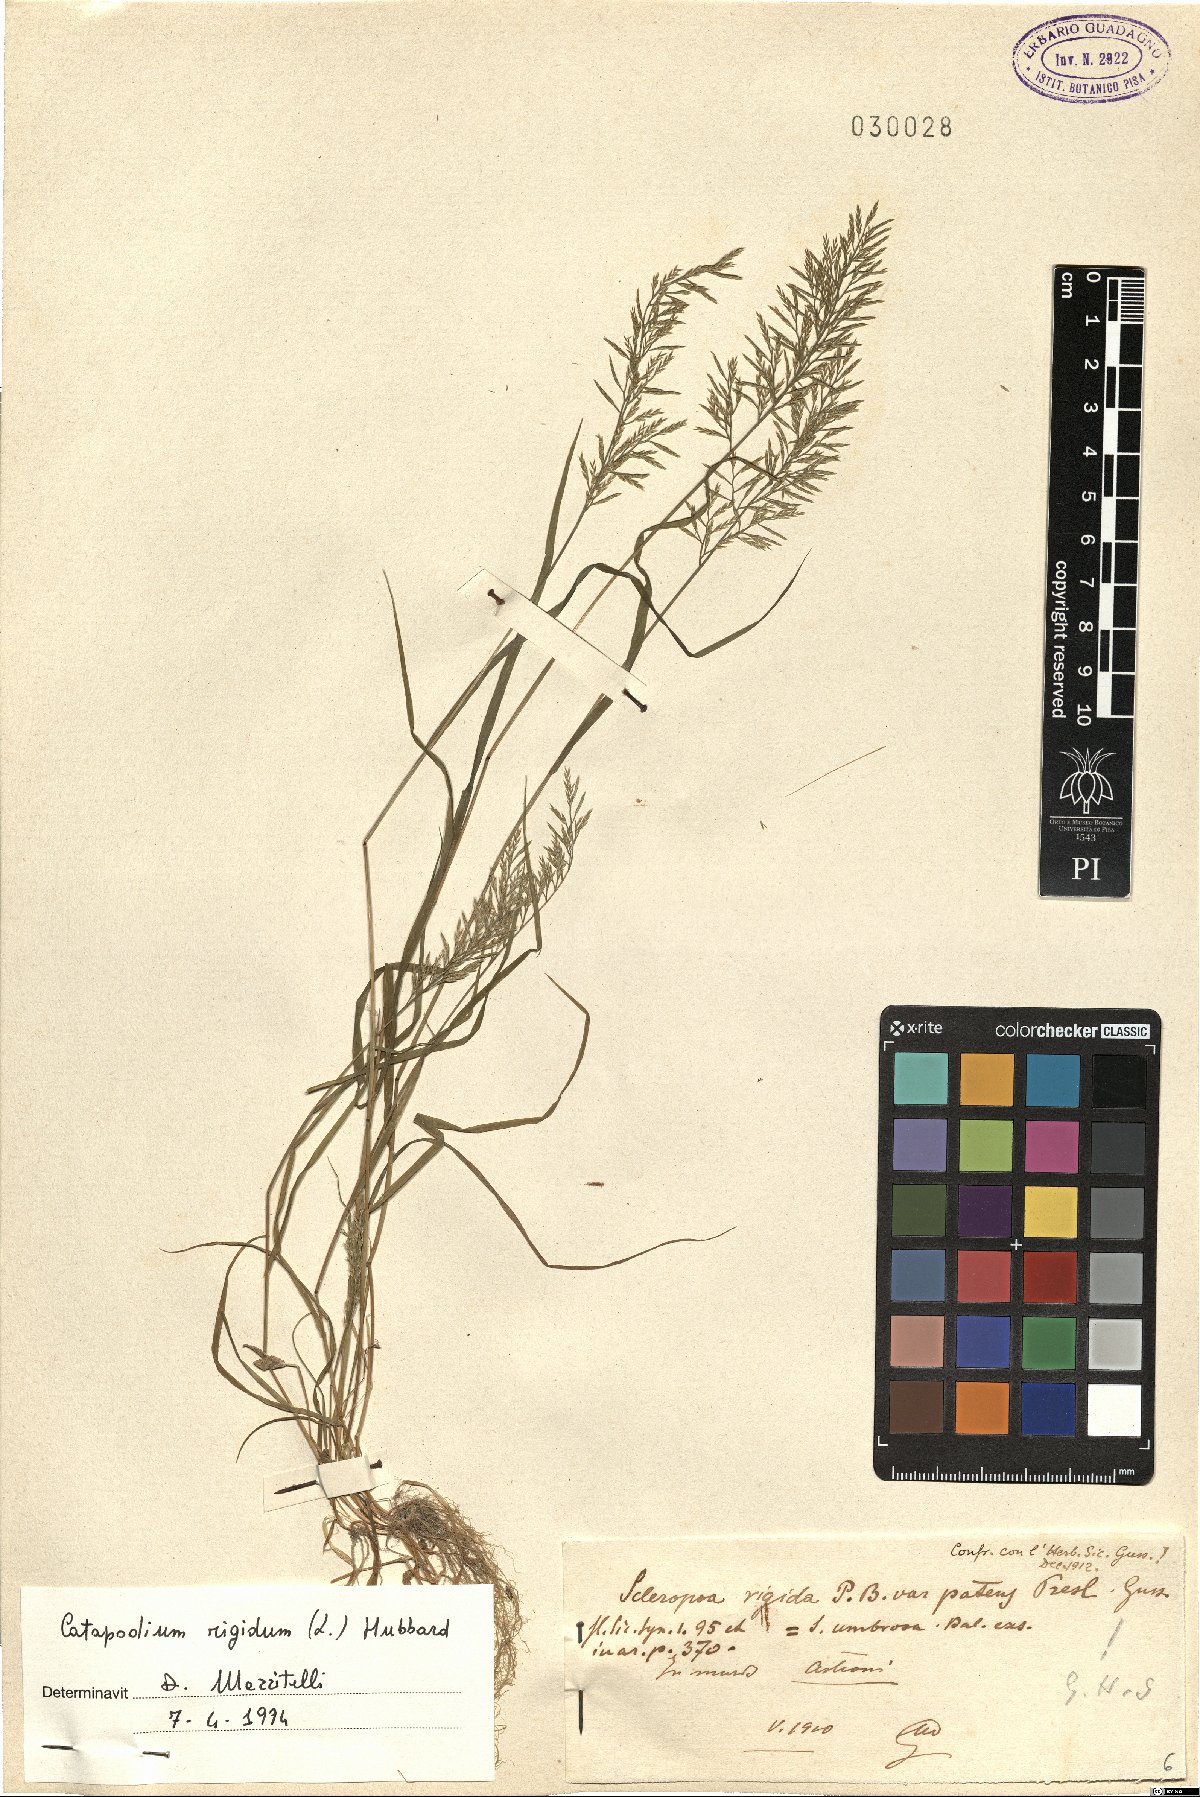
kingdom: Plantae
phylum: Tracheophyta
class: Liliopsida
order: Poales
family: Poaceae
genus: Catapodium
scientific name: Catapodium rigidum
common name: Fern-grass
